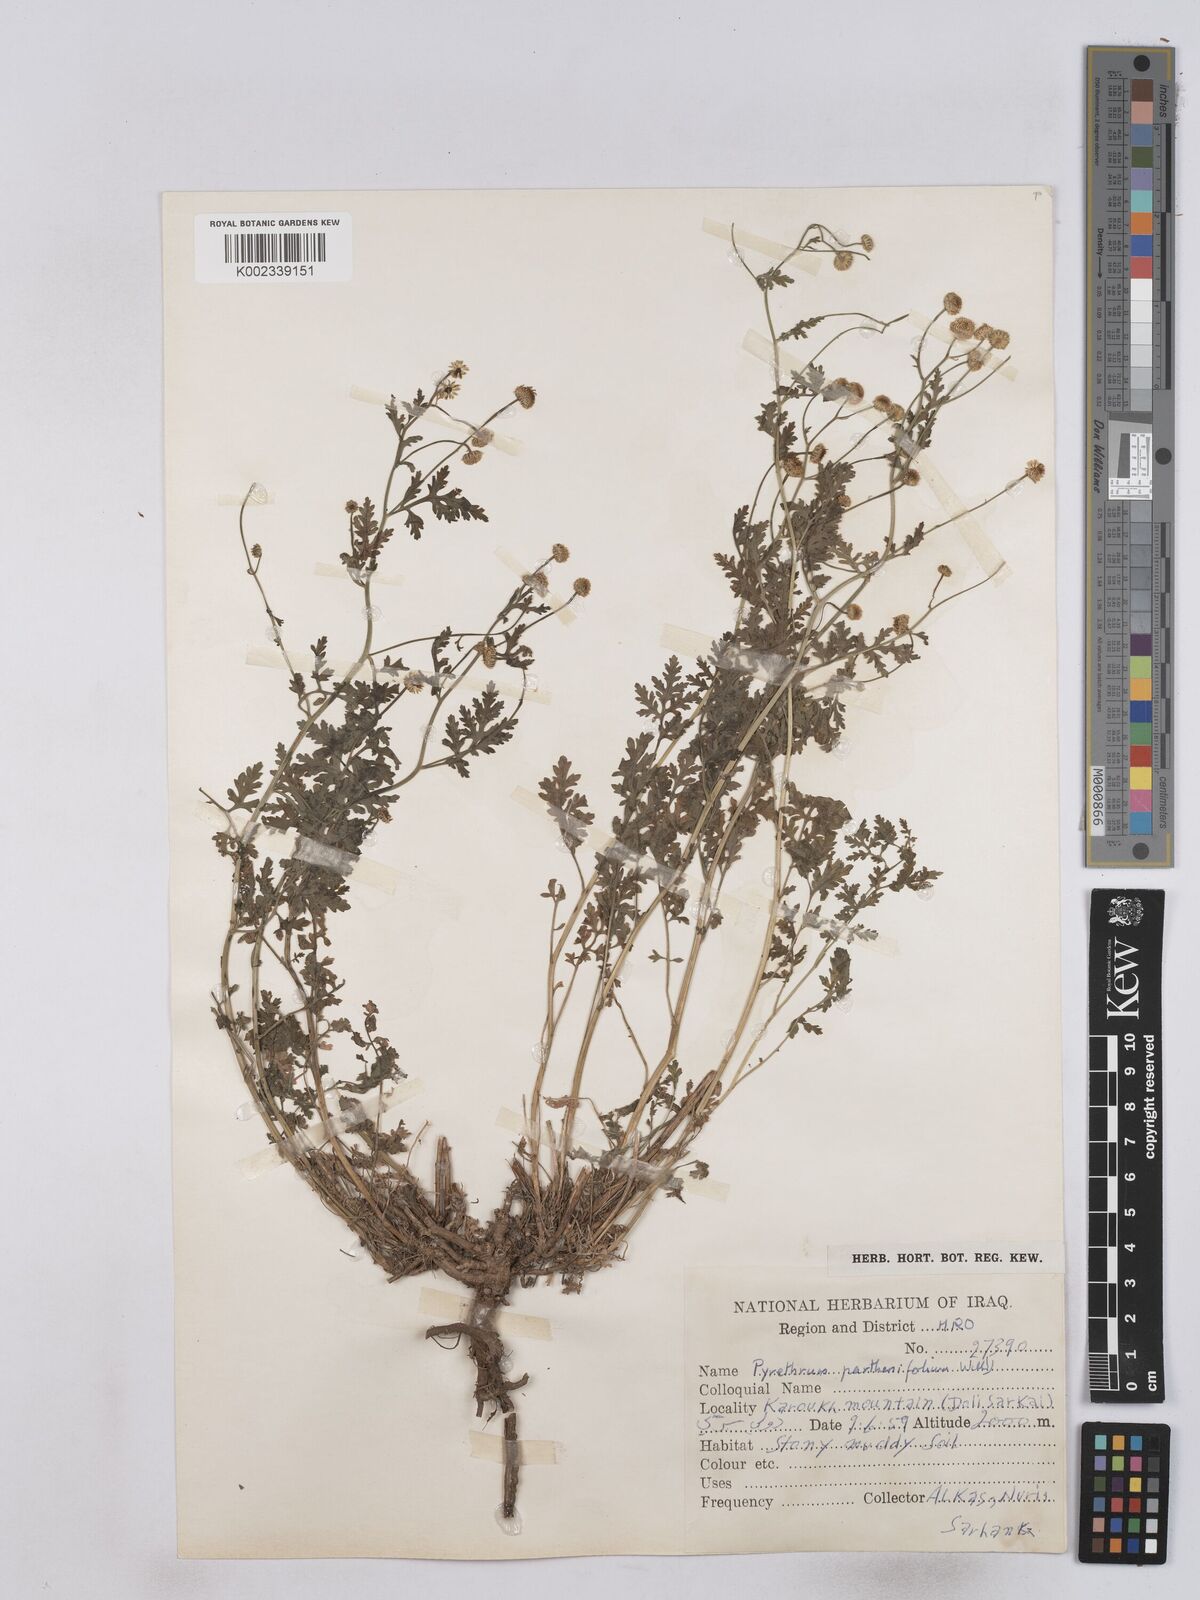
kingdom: Plantae
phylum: Tracheophyta
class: Magnoliopsida
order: Asterales
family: Asteraceae
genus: Tanacetum
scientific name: Tanacetum partheniifolium
